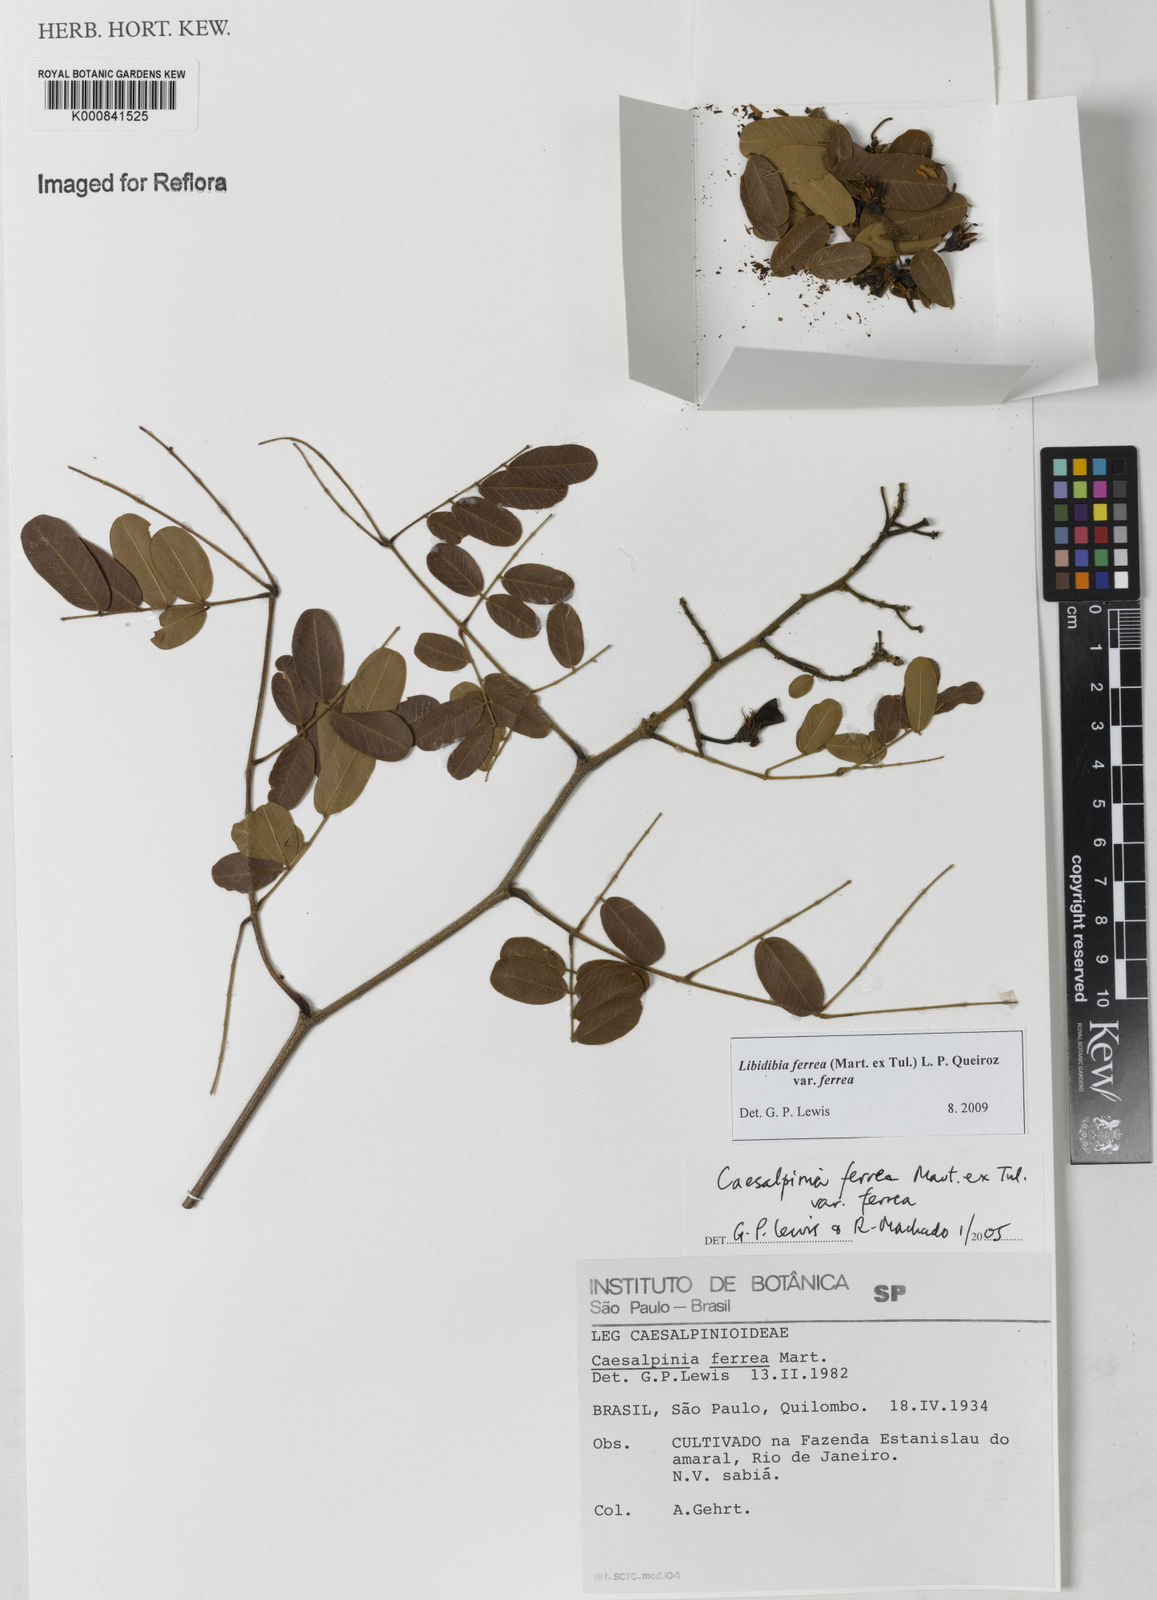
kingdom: Plantae
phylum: Tracheophyta
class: Magnoliopsida
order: Fabales
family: Fabaceae
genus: Libidibia
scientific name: Libidibia ferrea
